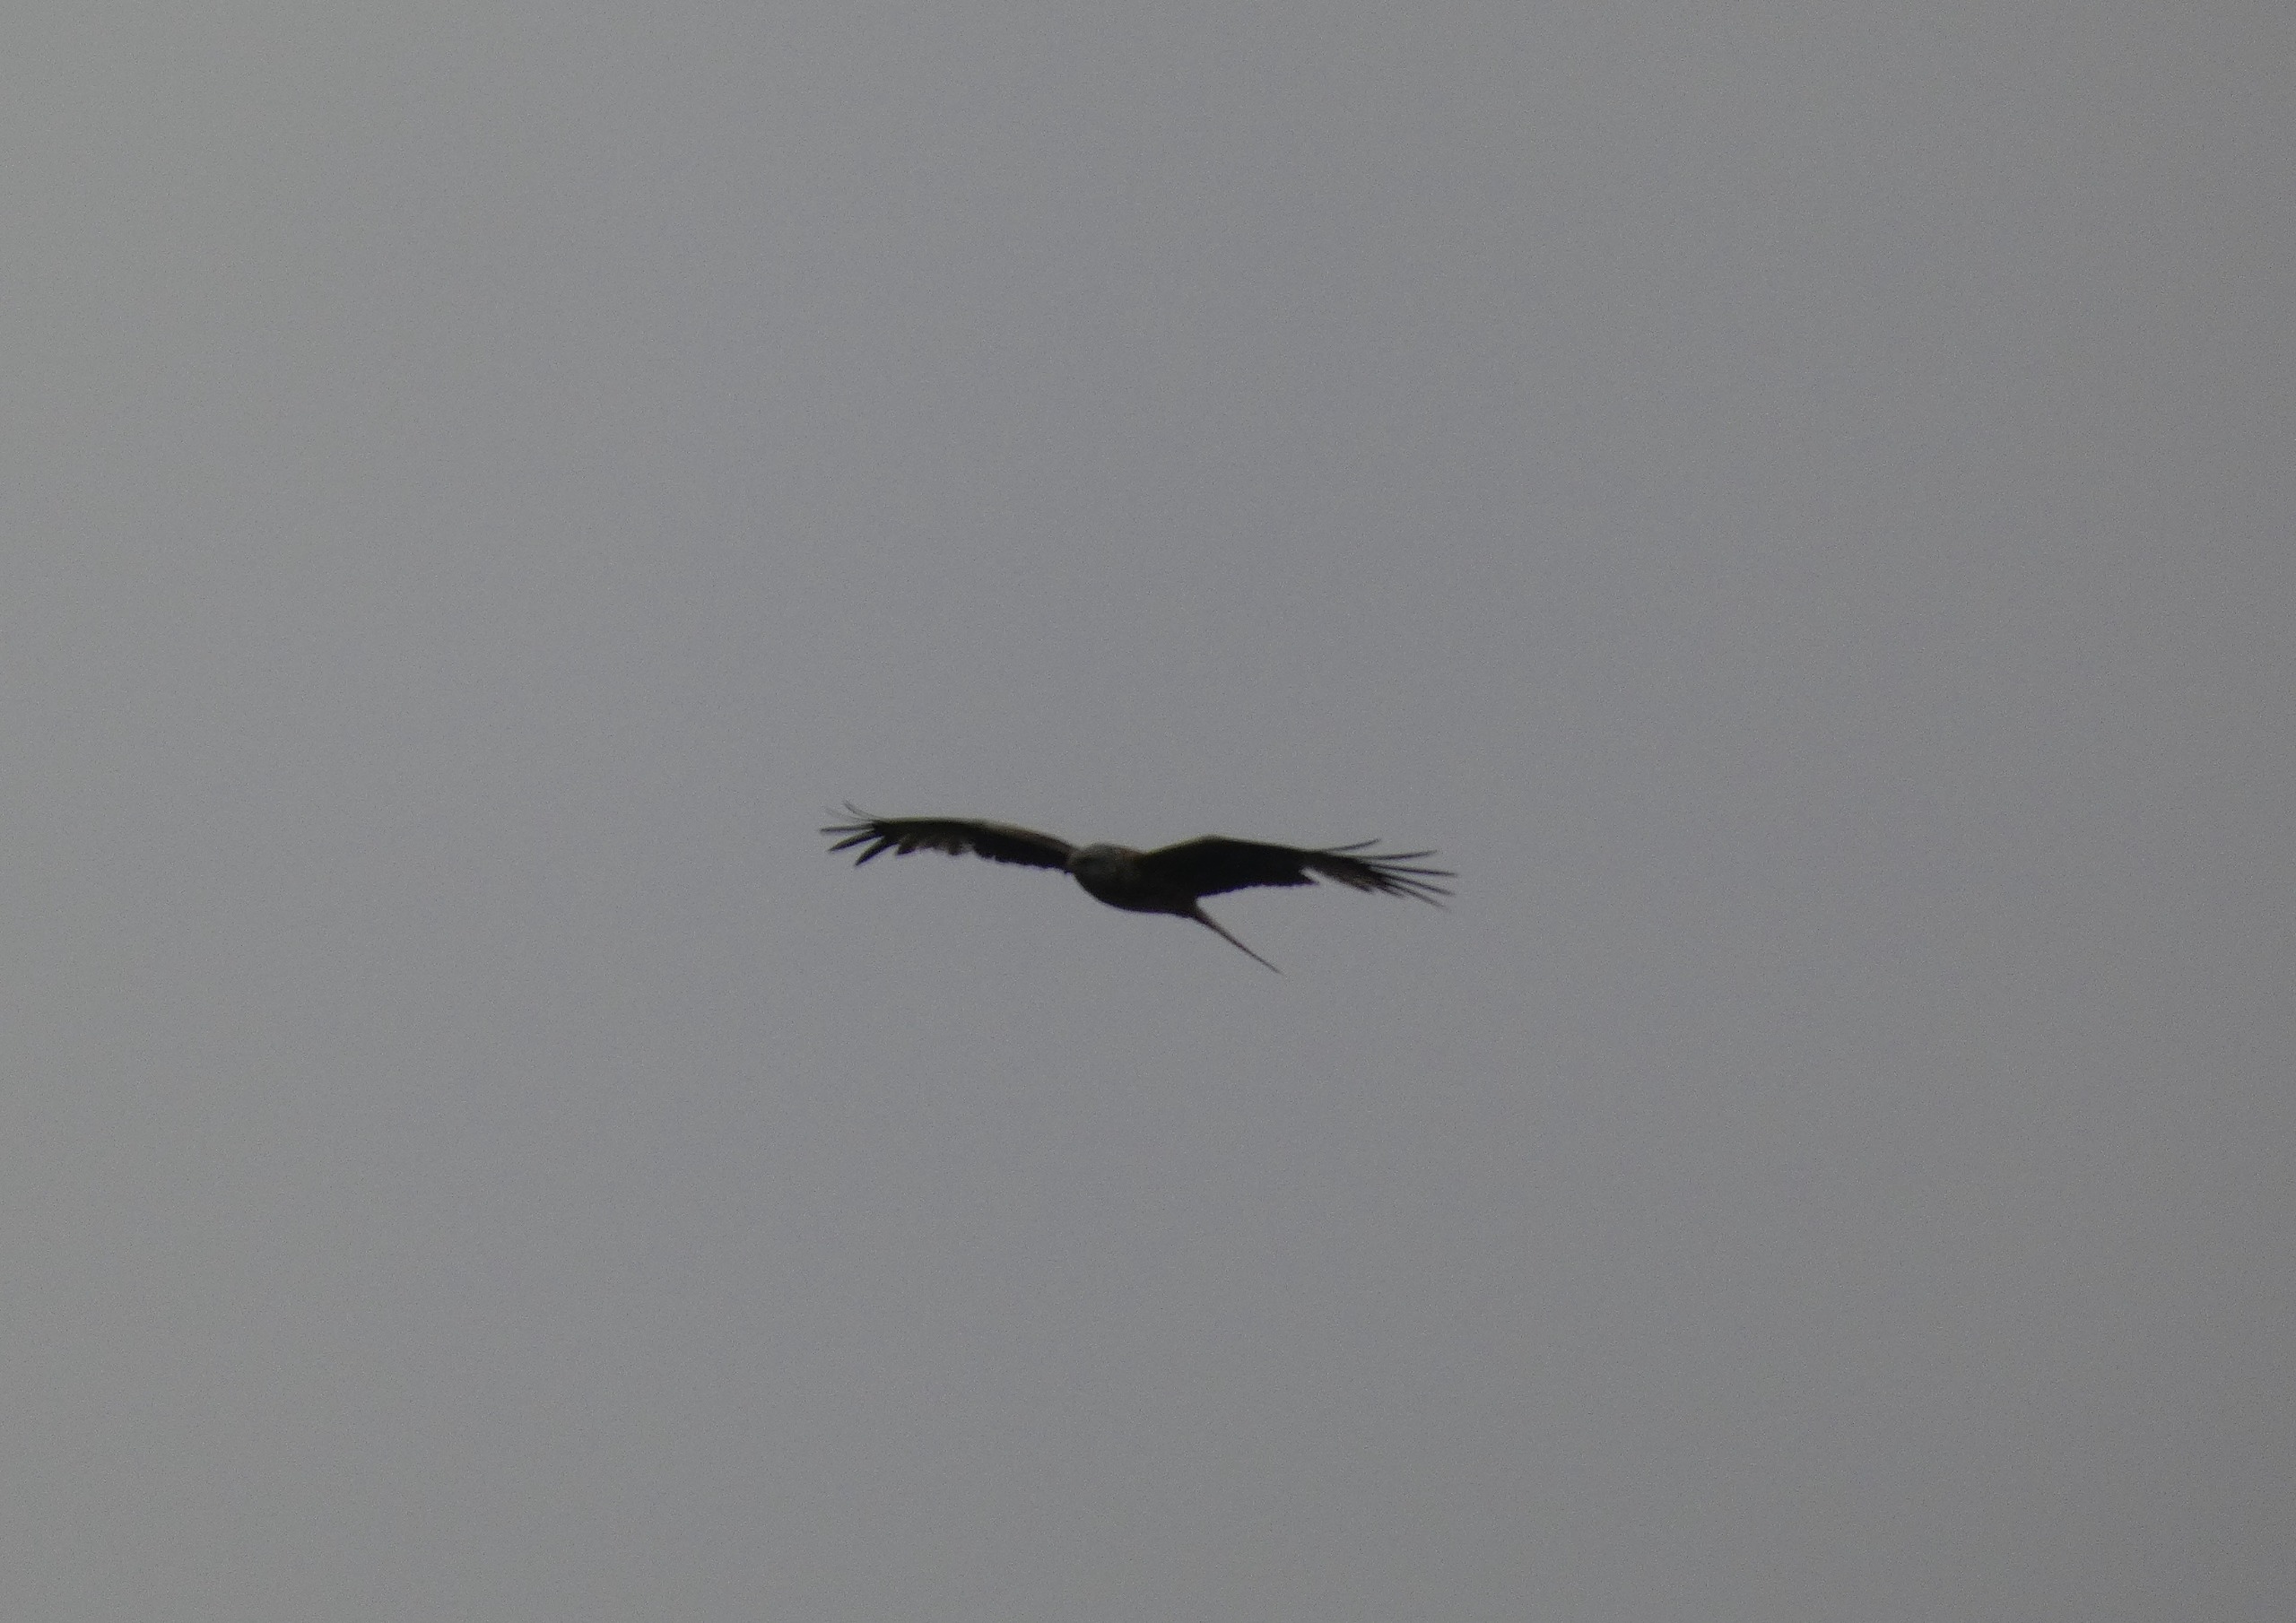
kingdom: Animalia
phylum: Chordata
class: Aves
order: Accipitriformes
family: Accipitridae
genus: Milvus
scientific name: Milvus milvus
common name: Rød glente
